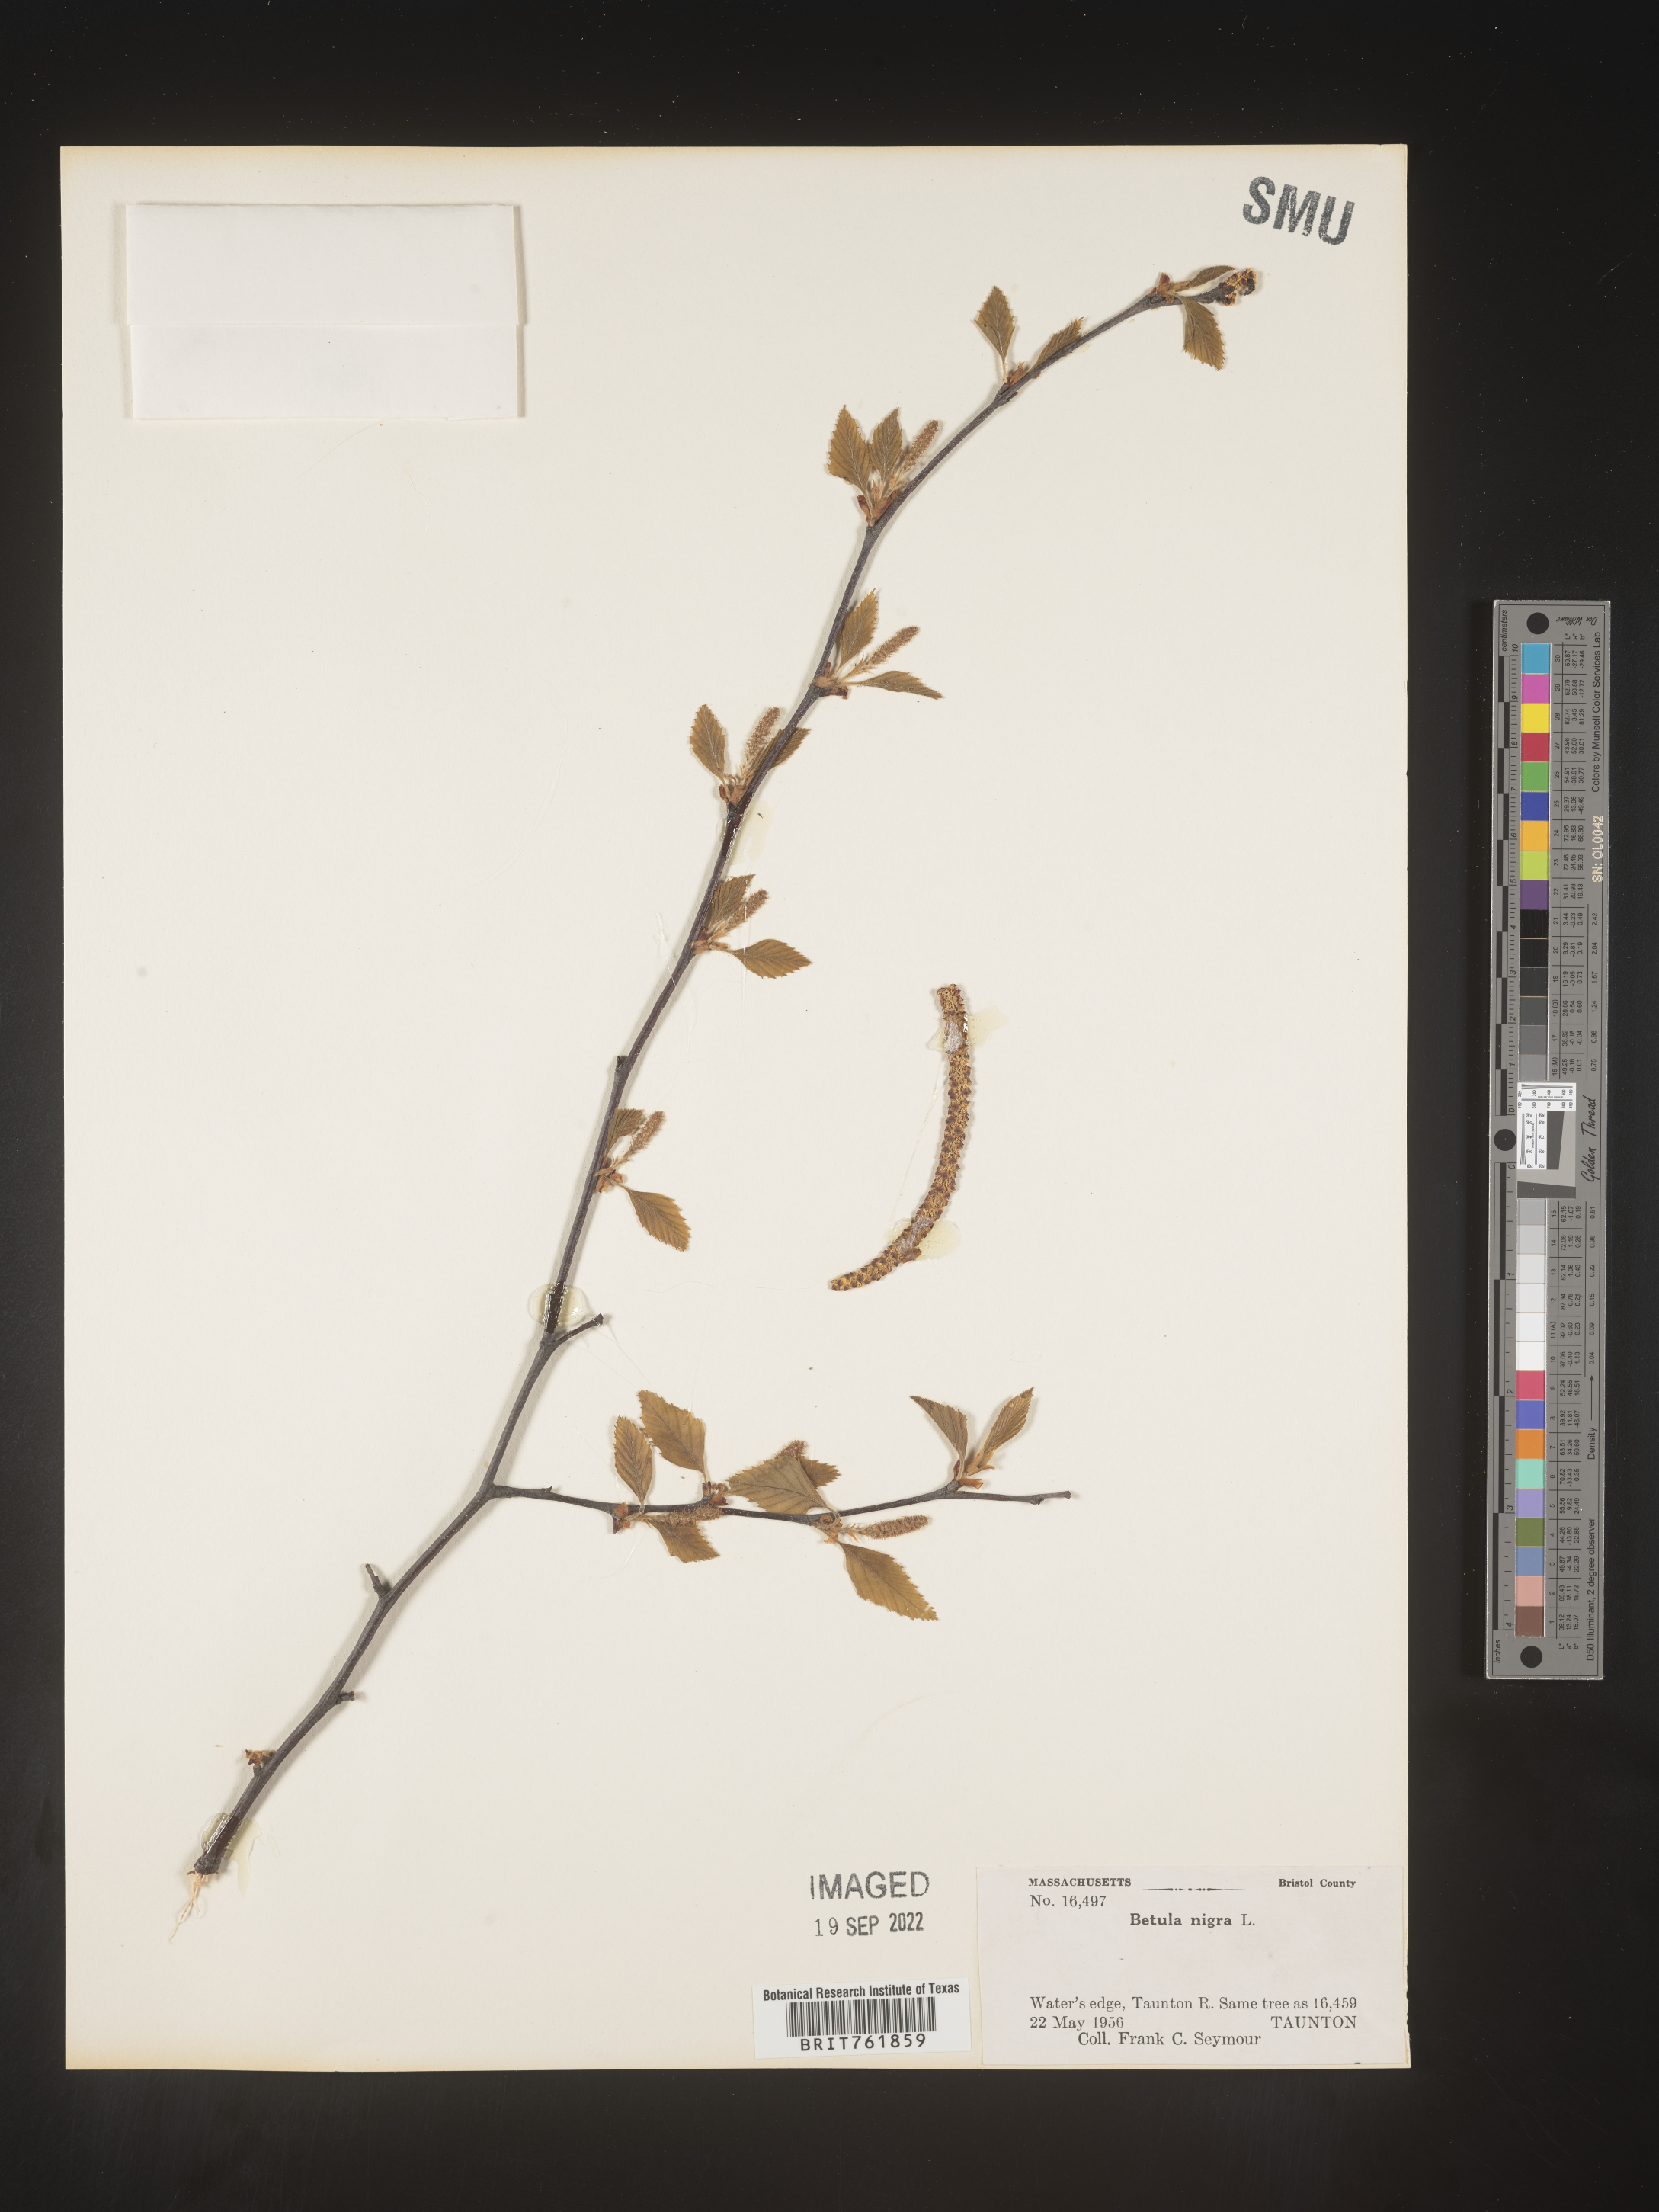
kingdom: Plantae
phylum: Tracheophyta
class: Magnoliopsida
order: Fagales
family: Betulaceae
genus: Betula
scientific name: Betula nigra
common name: Black birch
